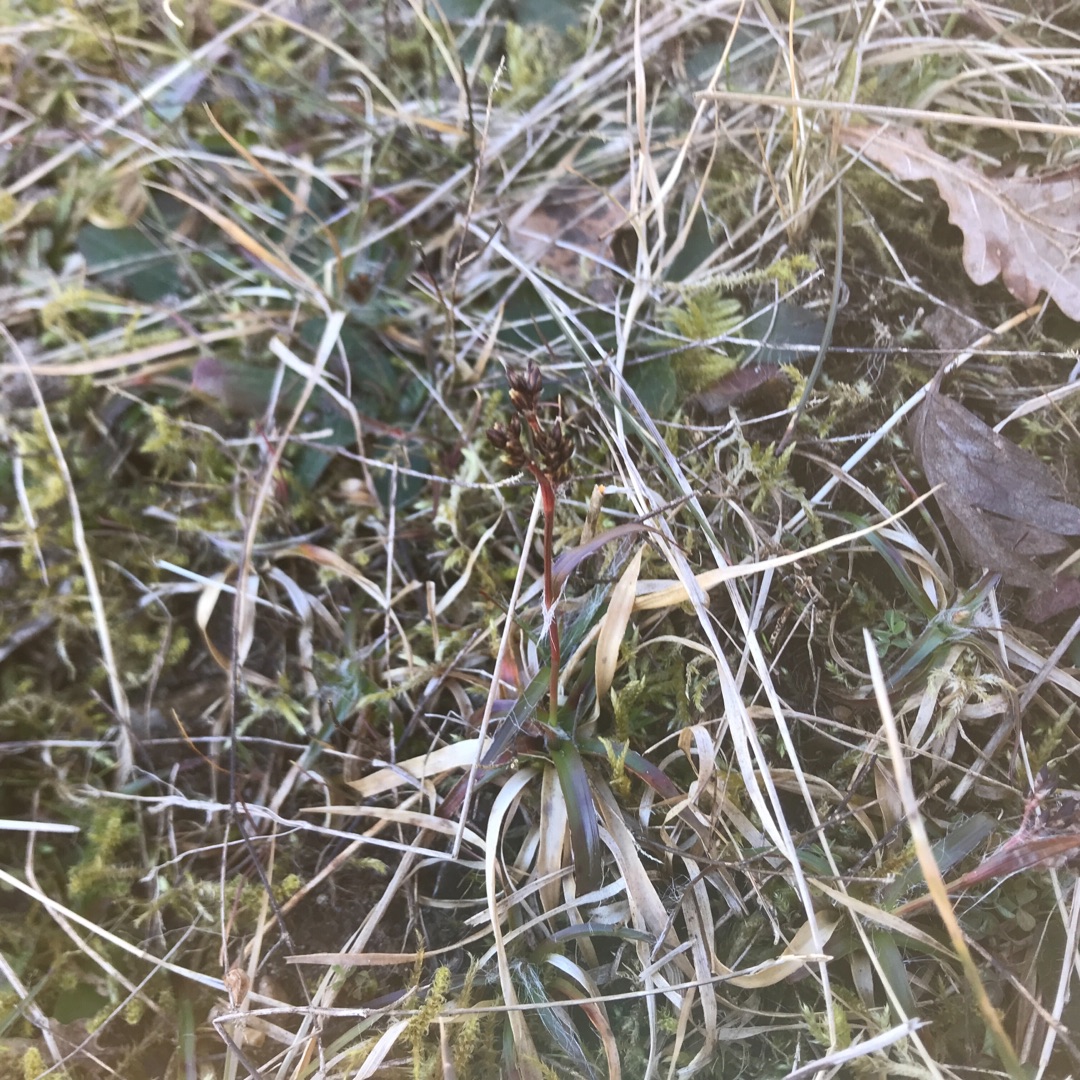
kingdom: Plantae
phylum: Tracheophyta
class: Liliopsida
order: Poales
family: Juncaceae
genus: Luzula
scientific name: Luzula campestris
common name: Mark-frytle
